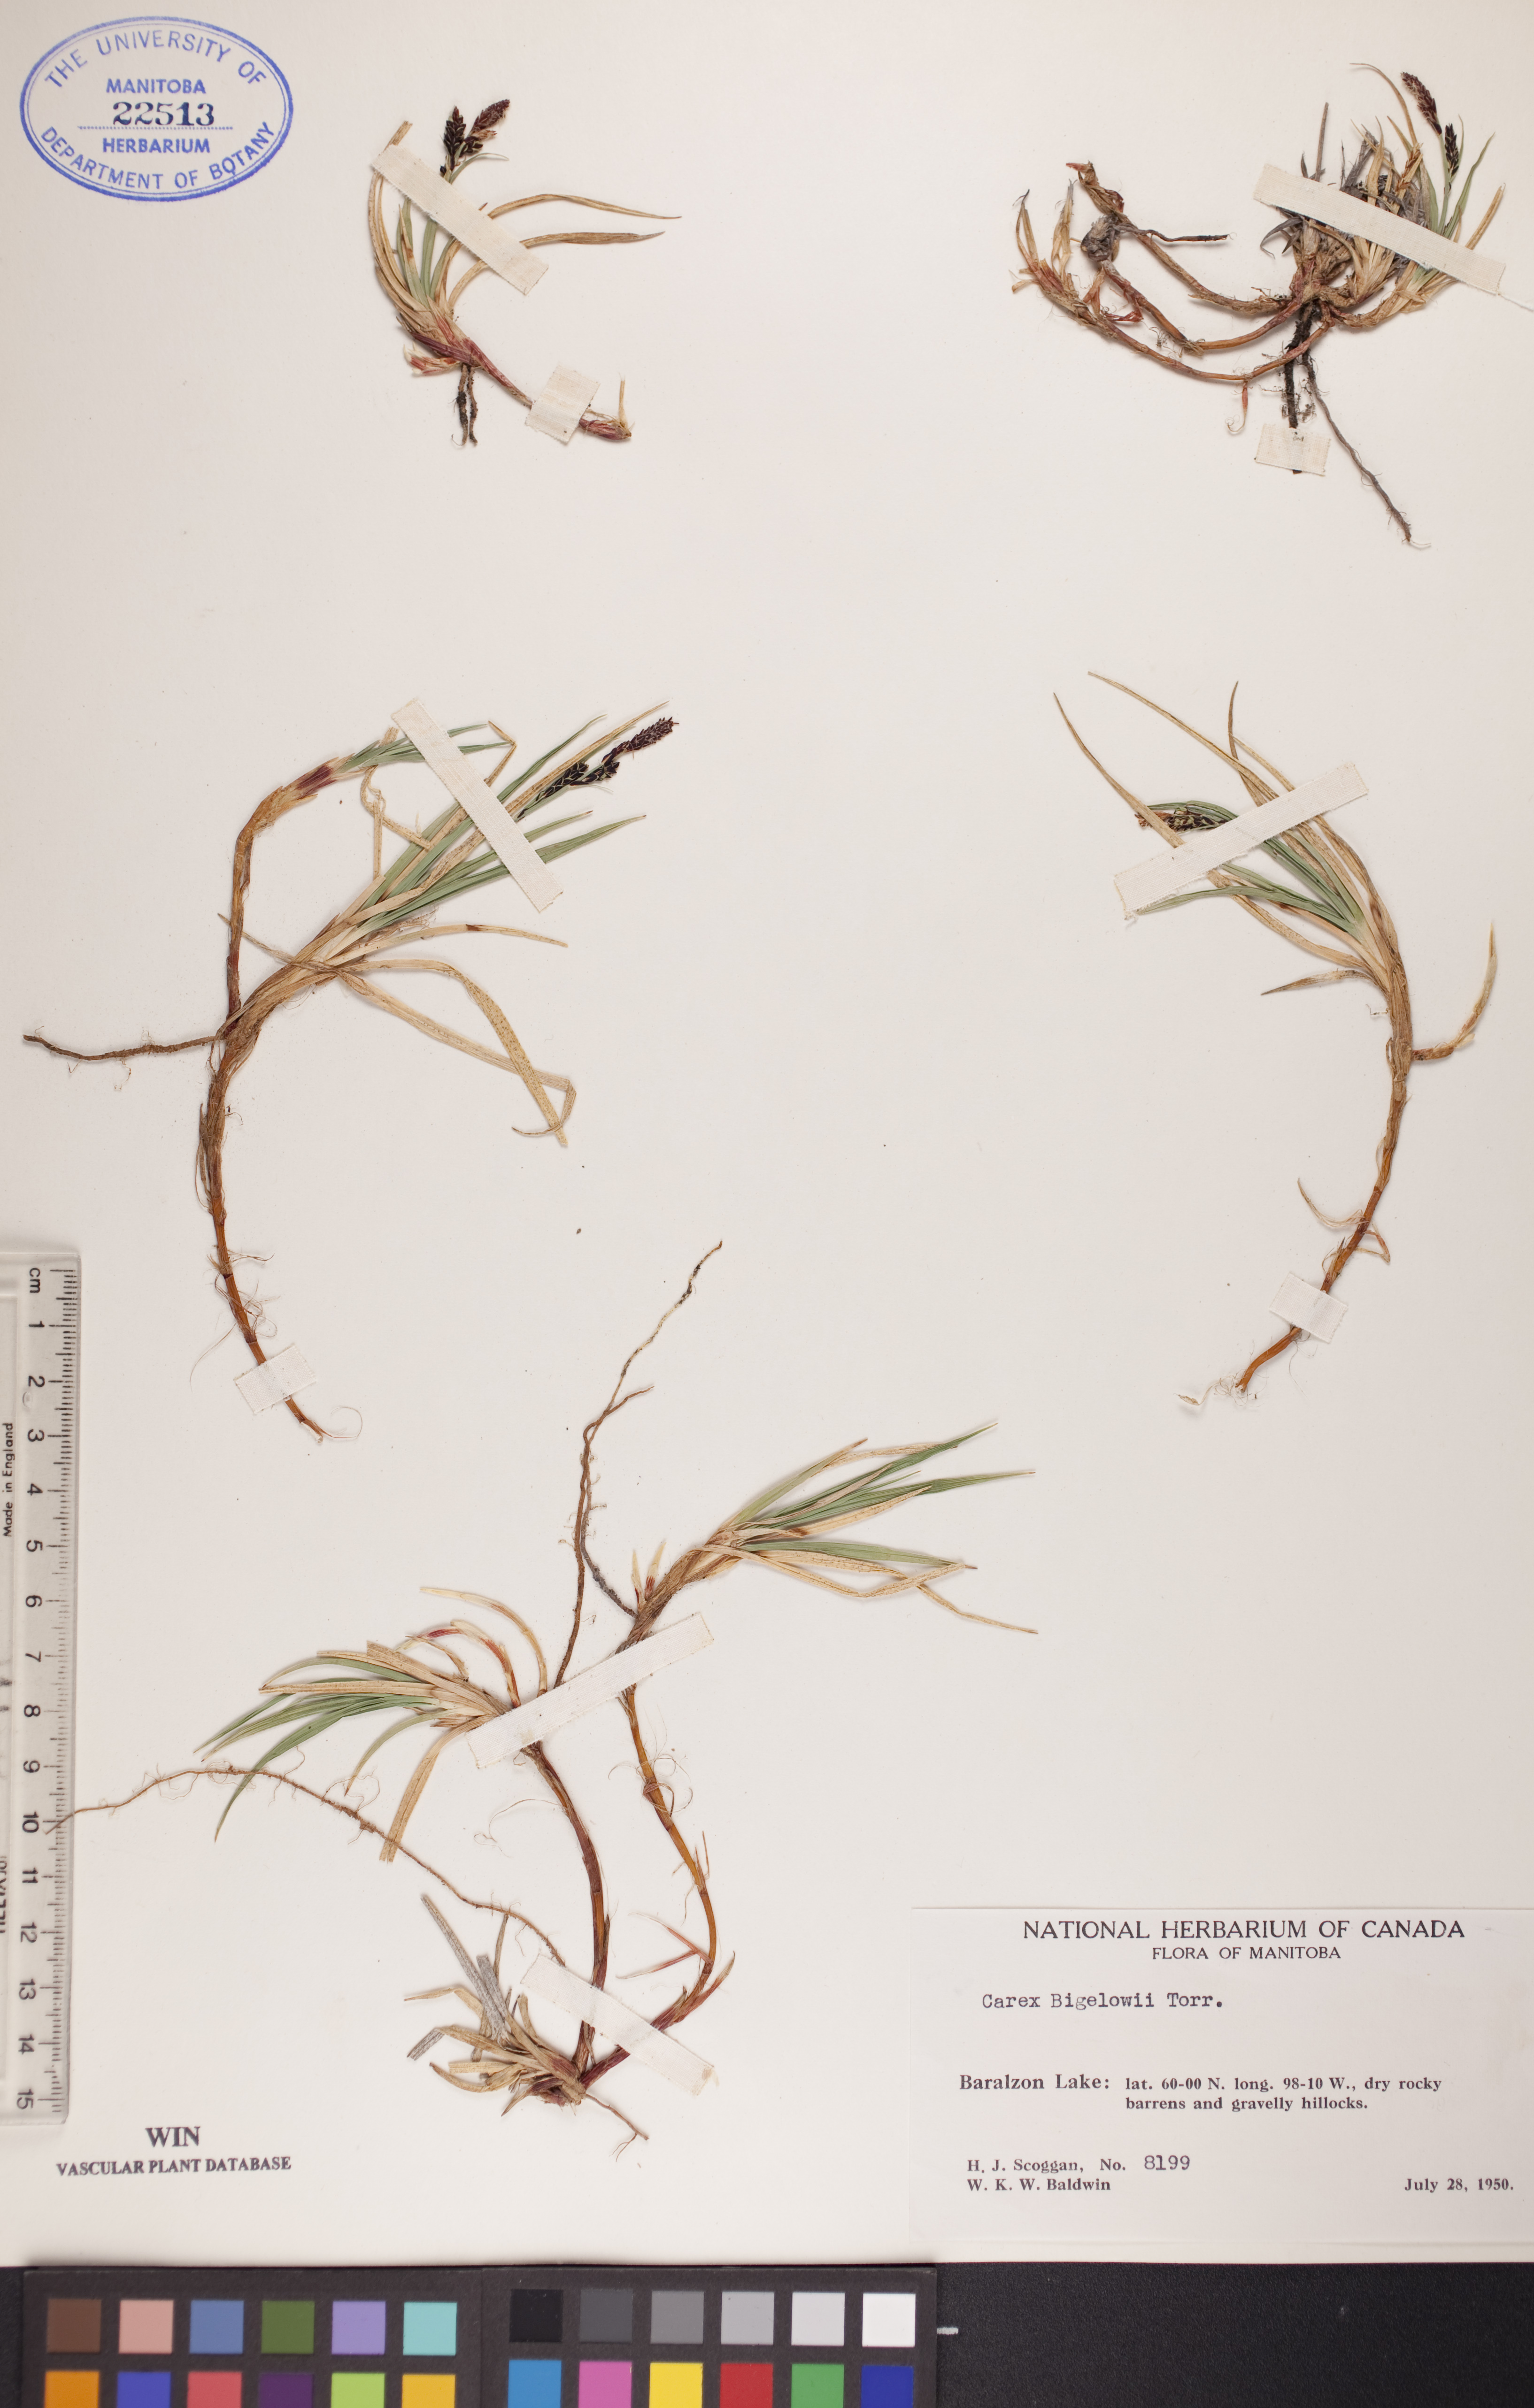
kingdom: Plantae
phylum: Tracheophyta
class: Liliopsida
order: Poales
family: Cyperaceae
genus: Carex
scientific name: Carex bigelowii
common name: Stiff sedge
